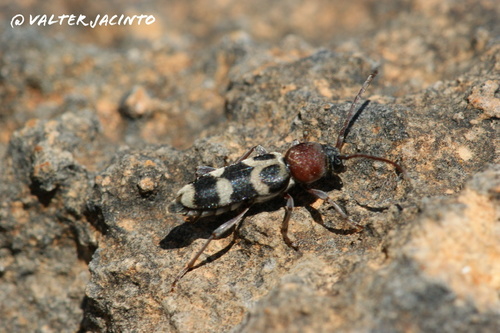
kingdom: Animalia
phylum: Arthropoda
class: Insecta
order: Coleoptera
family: Cerambycidae
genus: Chlorophorus
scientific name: Chlorophorus trifasciatus
